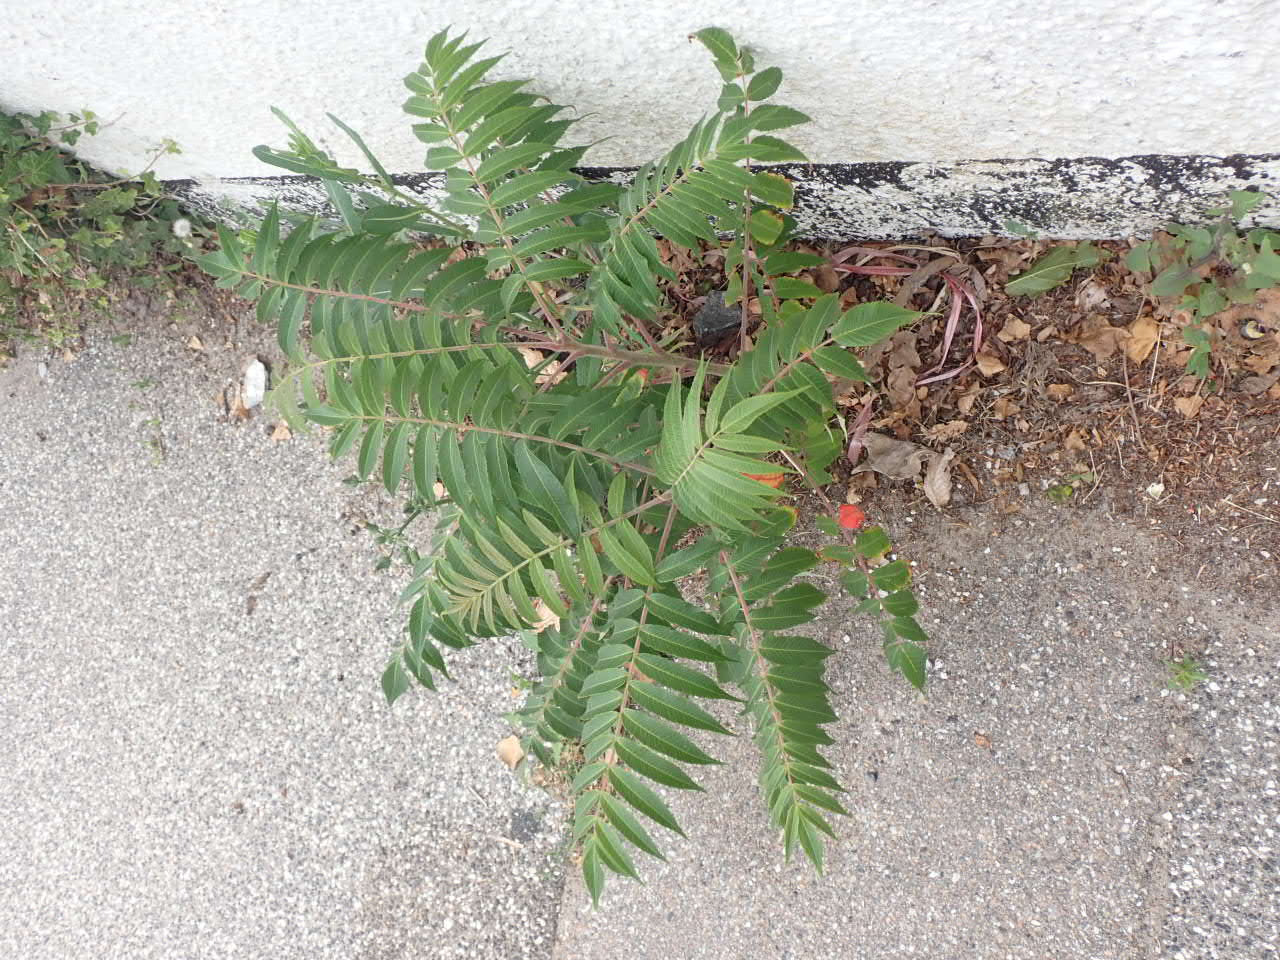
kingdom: Plantae
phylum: Tracheophyta
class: Magnoliopsida
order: Sapindales
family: Anacardiaceae
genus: Rhus
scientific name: Rhus typhina
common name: Hjortetaktræ
